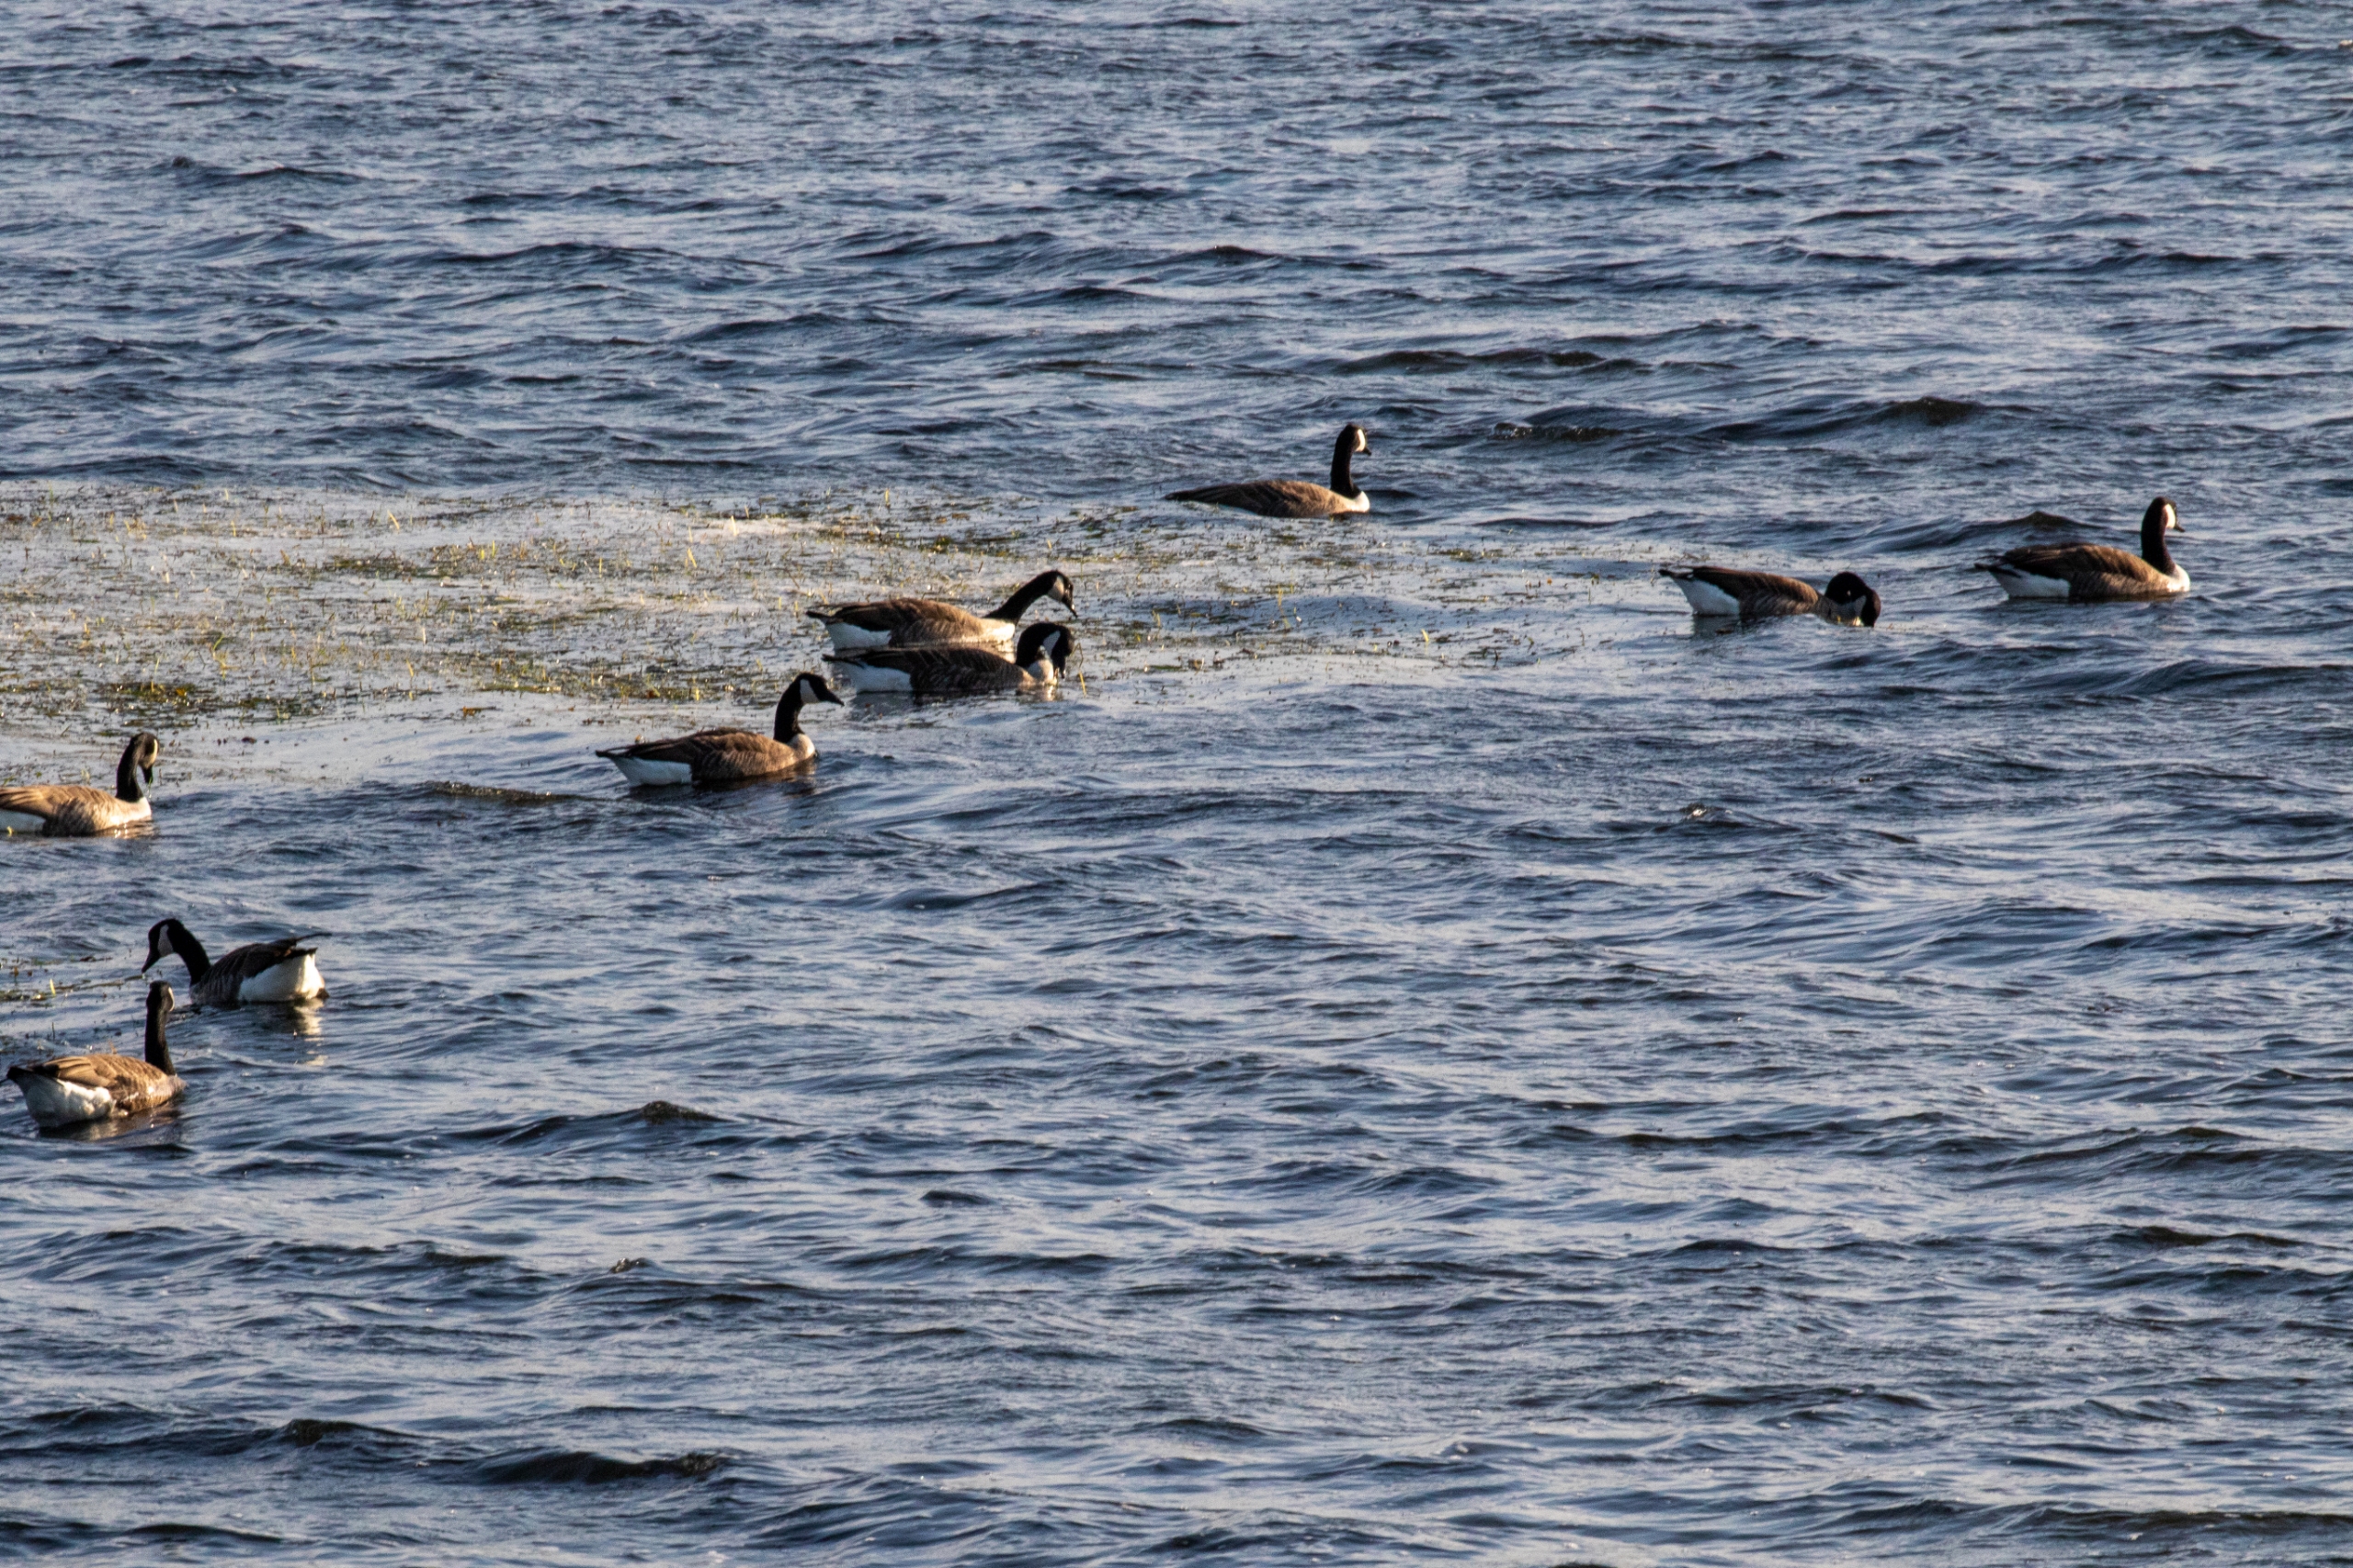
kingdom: Animalia
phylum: Chordata
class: Aves
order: Anseriformes
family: Anatidae
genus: Branta
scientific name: Branta canadensis
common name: Canadagås
